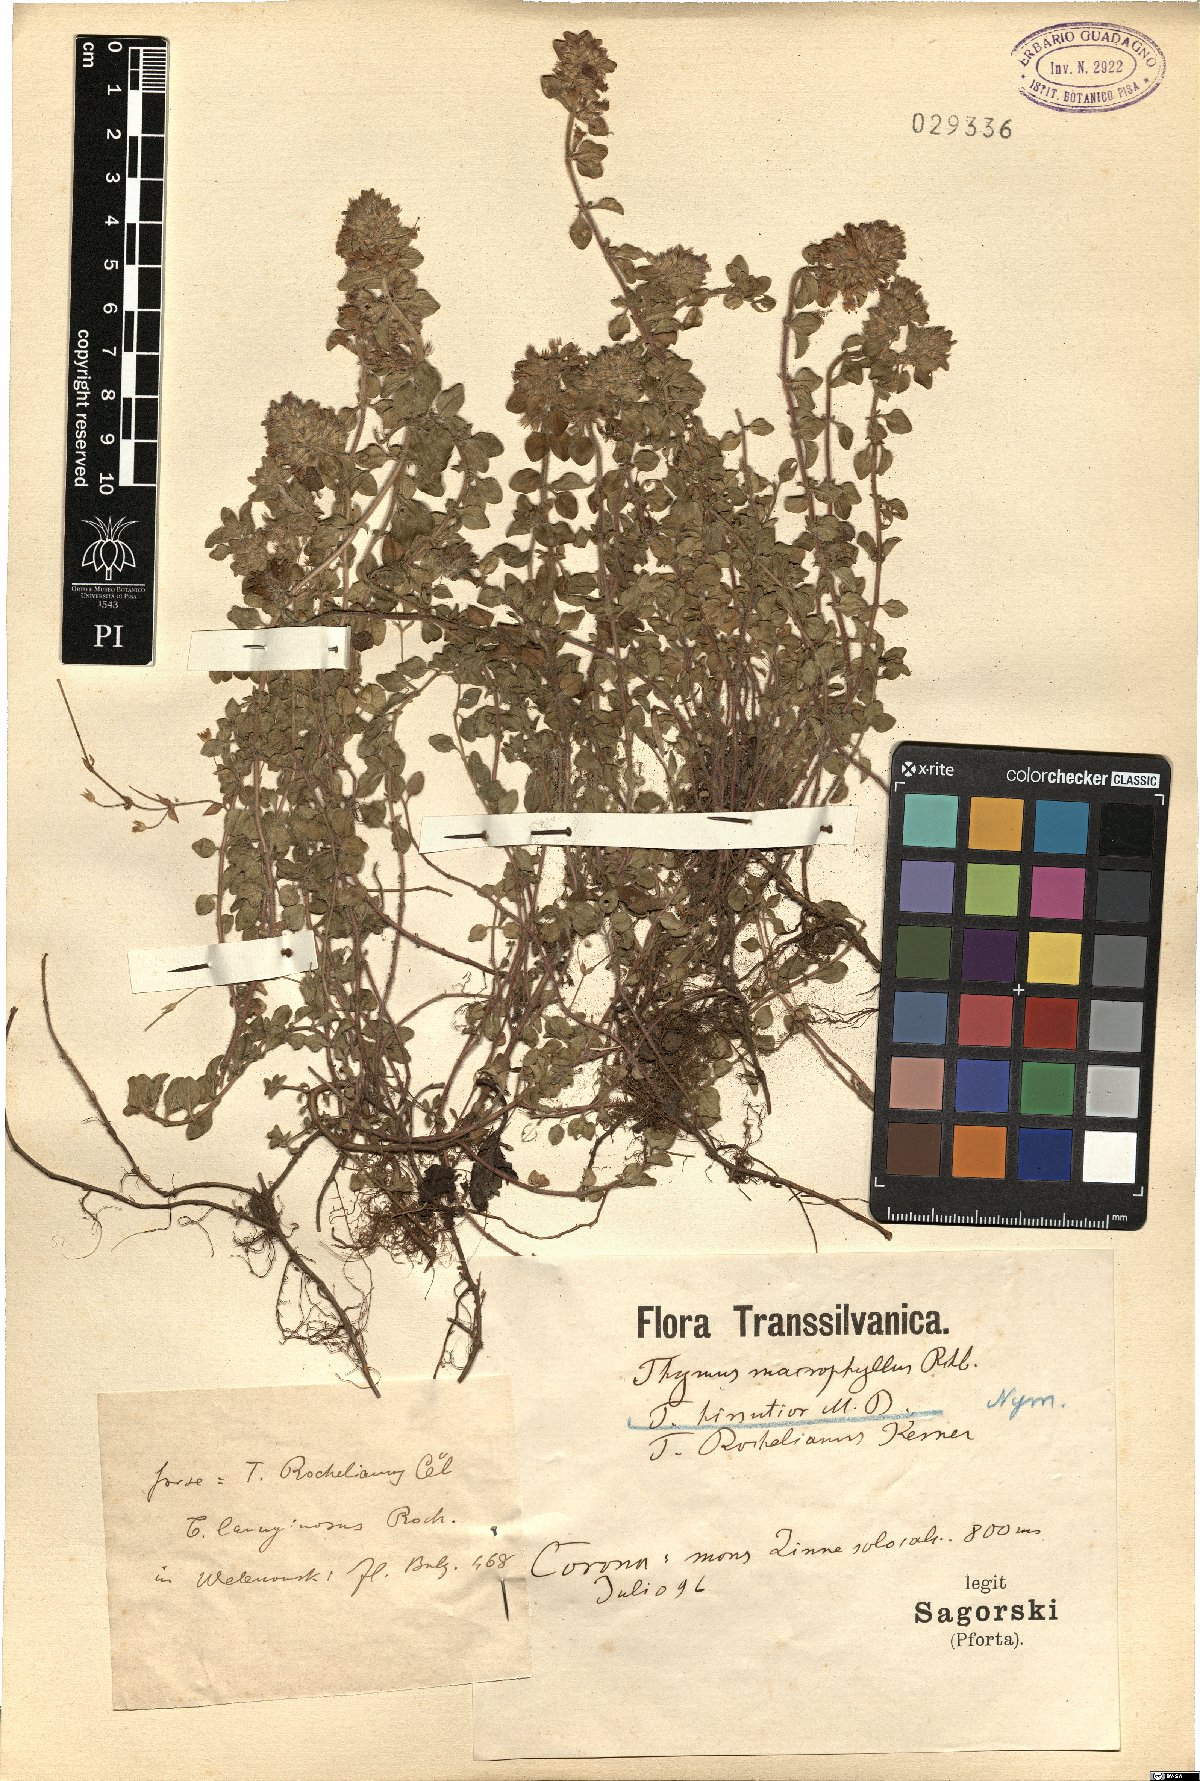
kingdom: Plantae
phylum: Tracheophyta
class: Magnoliopsida
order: Lamiales
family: Lamiaceae
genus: Thymus
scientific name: Thymus pulegioides
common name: Large thyme
